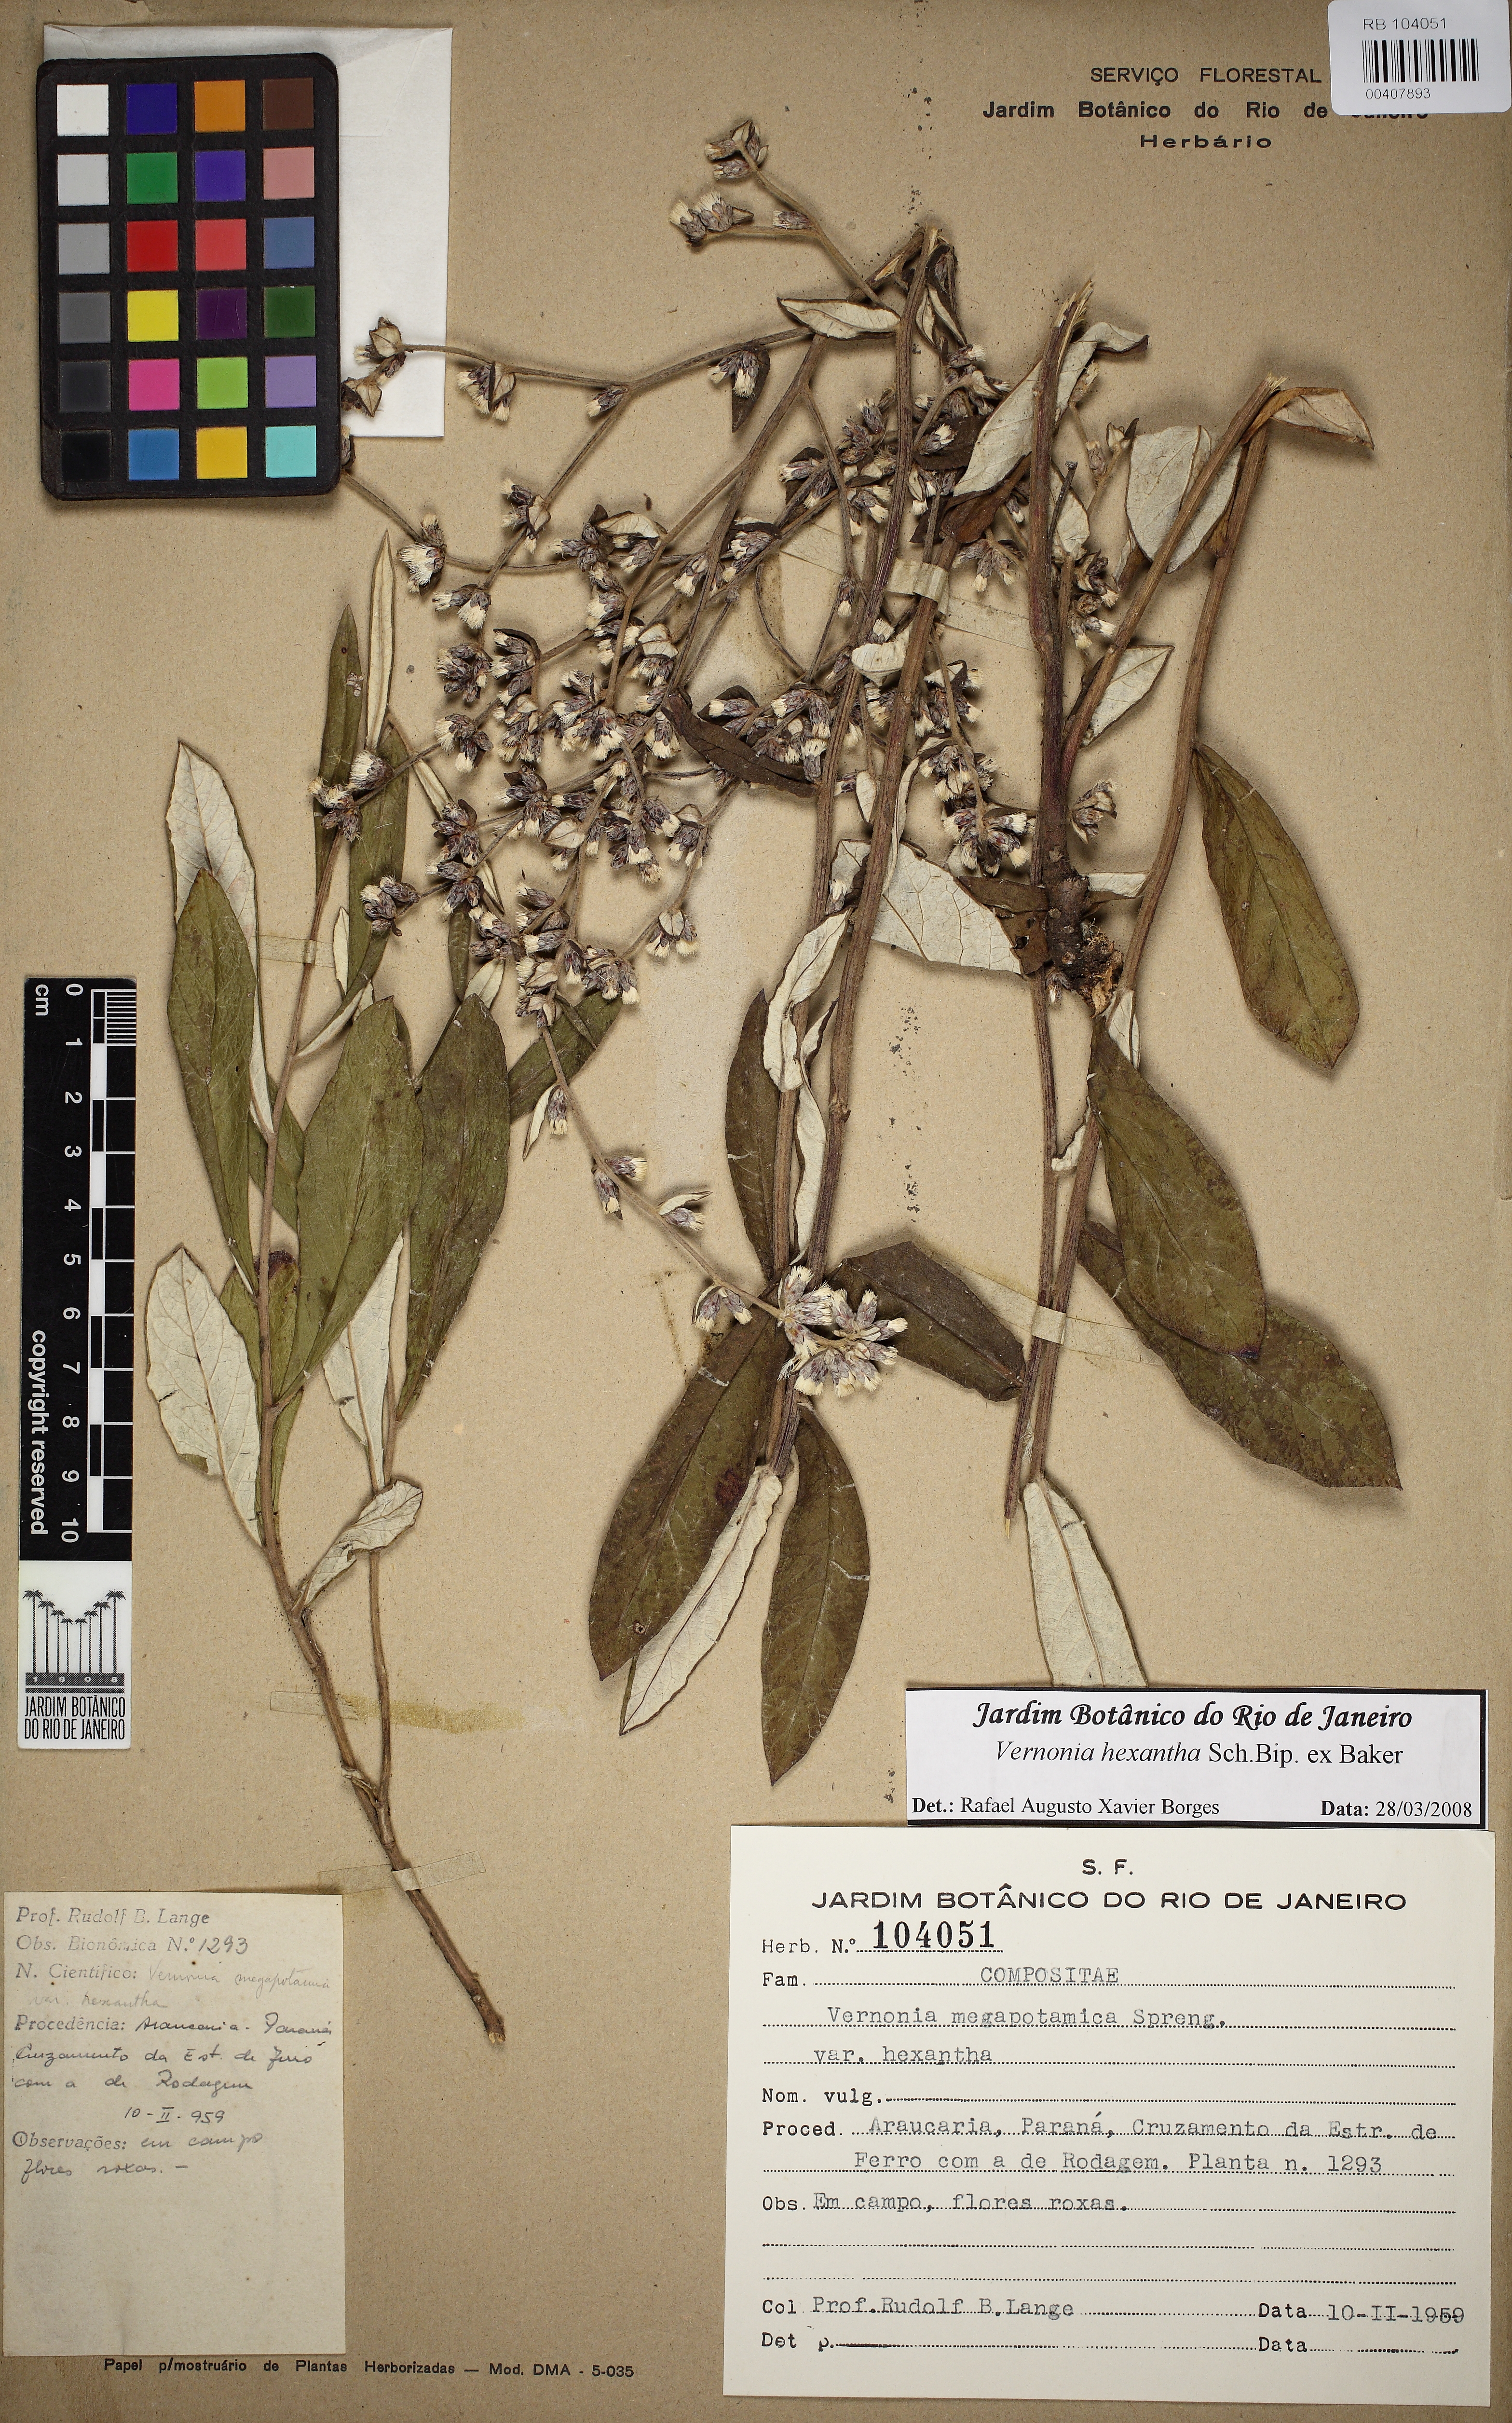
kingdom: Plantae
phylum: Tracheophyta
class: Magnoliopsida
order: Asterales
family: Asteraceae
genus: Stenocephalum
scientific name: Stenocephalum hexanthum
